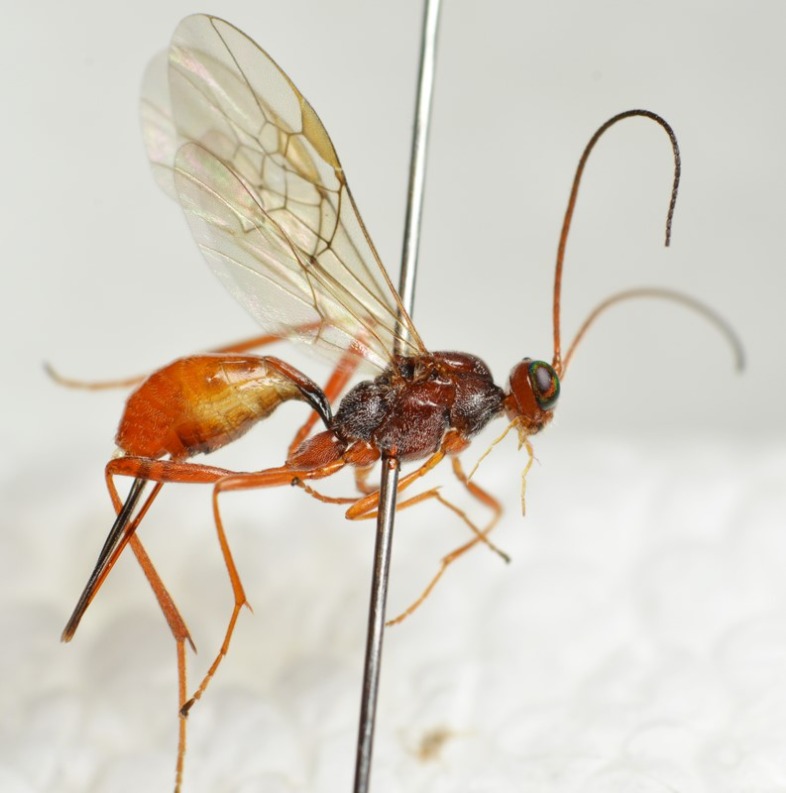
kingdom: Animalia
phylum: Arthropoda
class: Insecta
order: Hymenoptera
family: Braconidae
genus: Zele
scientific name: Zele chlorophthalmus
